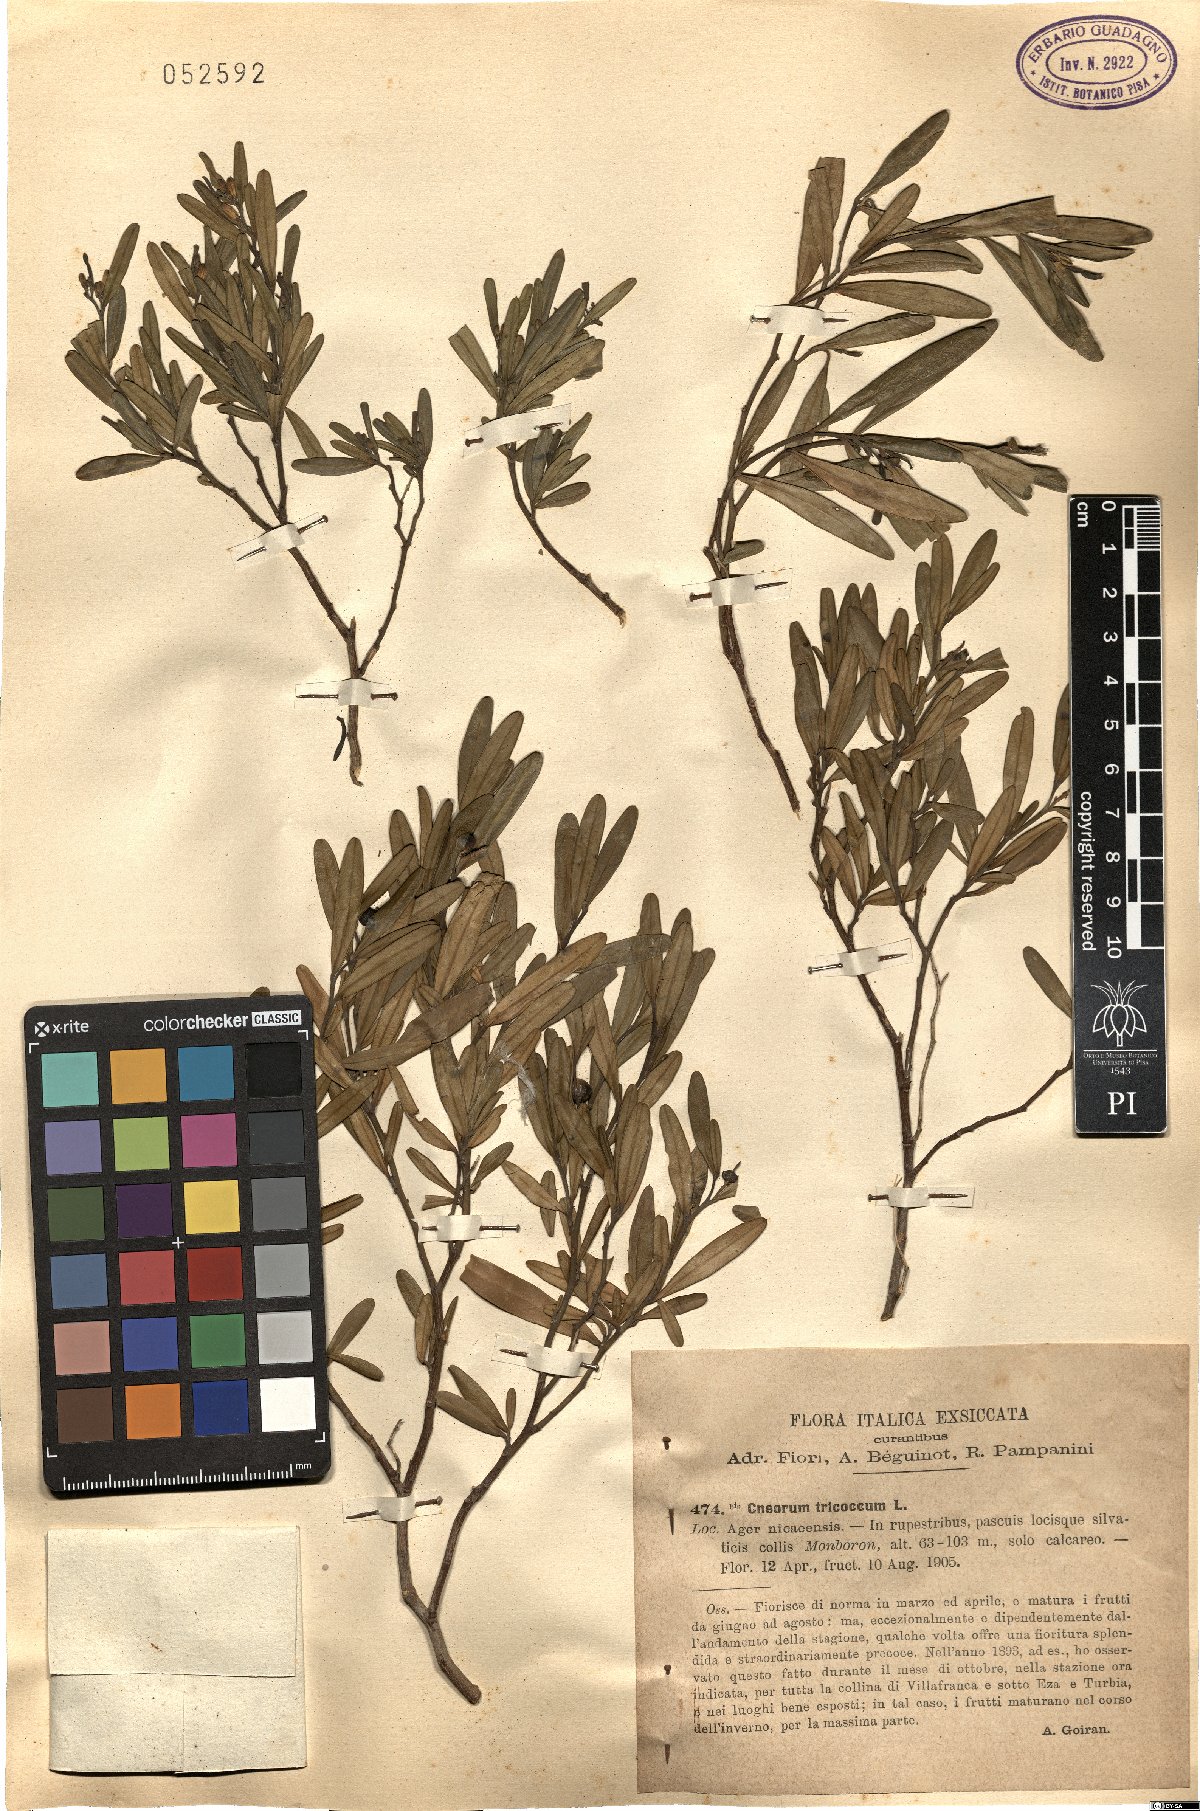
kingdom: Plantae
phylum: Tracheophyta
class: Magnoliopsida
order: Sapindales
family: Rutaceae
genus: Cneorum
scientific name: Cneorum tricoccon
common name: Spurge olive
